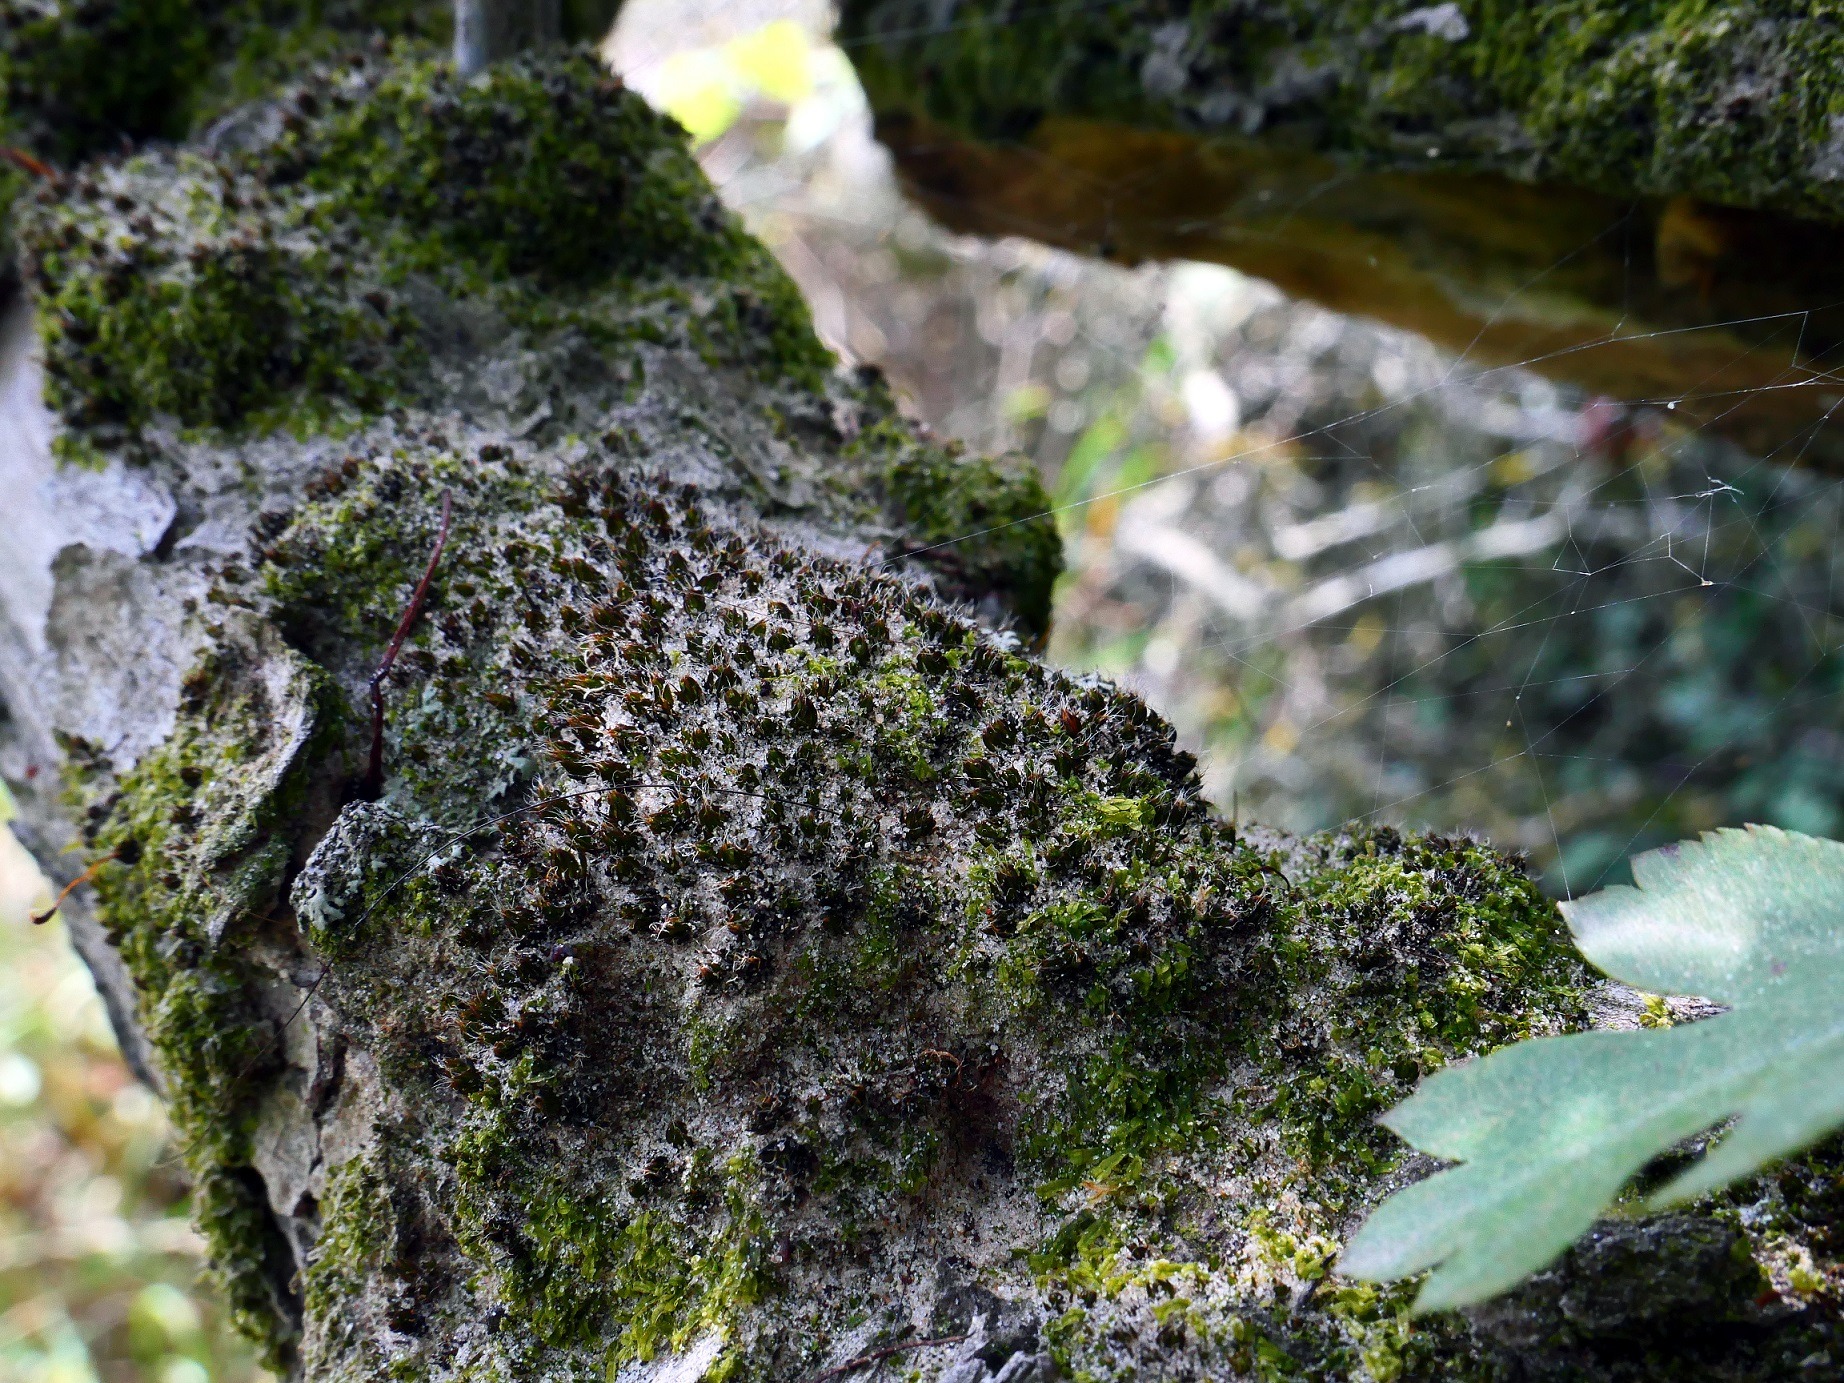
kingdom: Plantae
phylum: Bryophyta
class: Bryopsida
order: Pottiales
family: Pottiaceae
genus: Syntrichia
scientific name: Syntrichia laevipila
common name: Træ-hårstjerne
